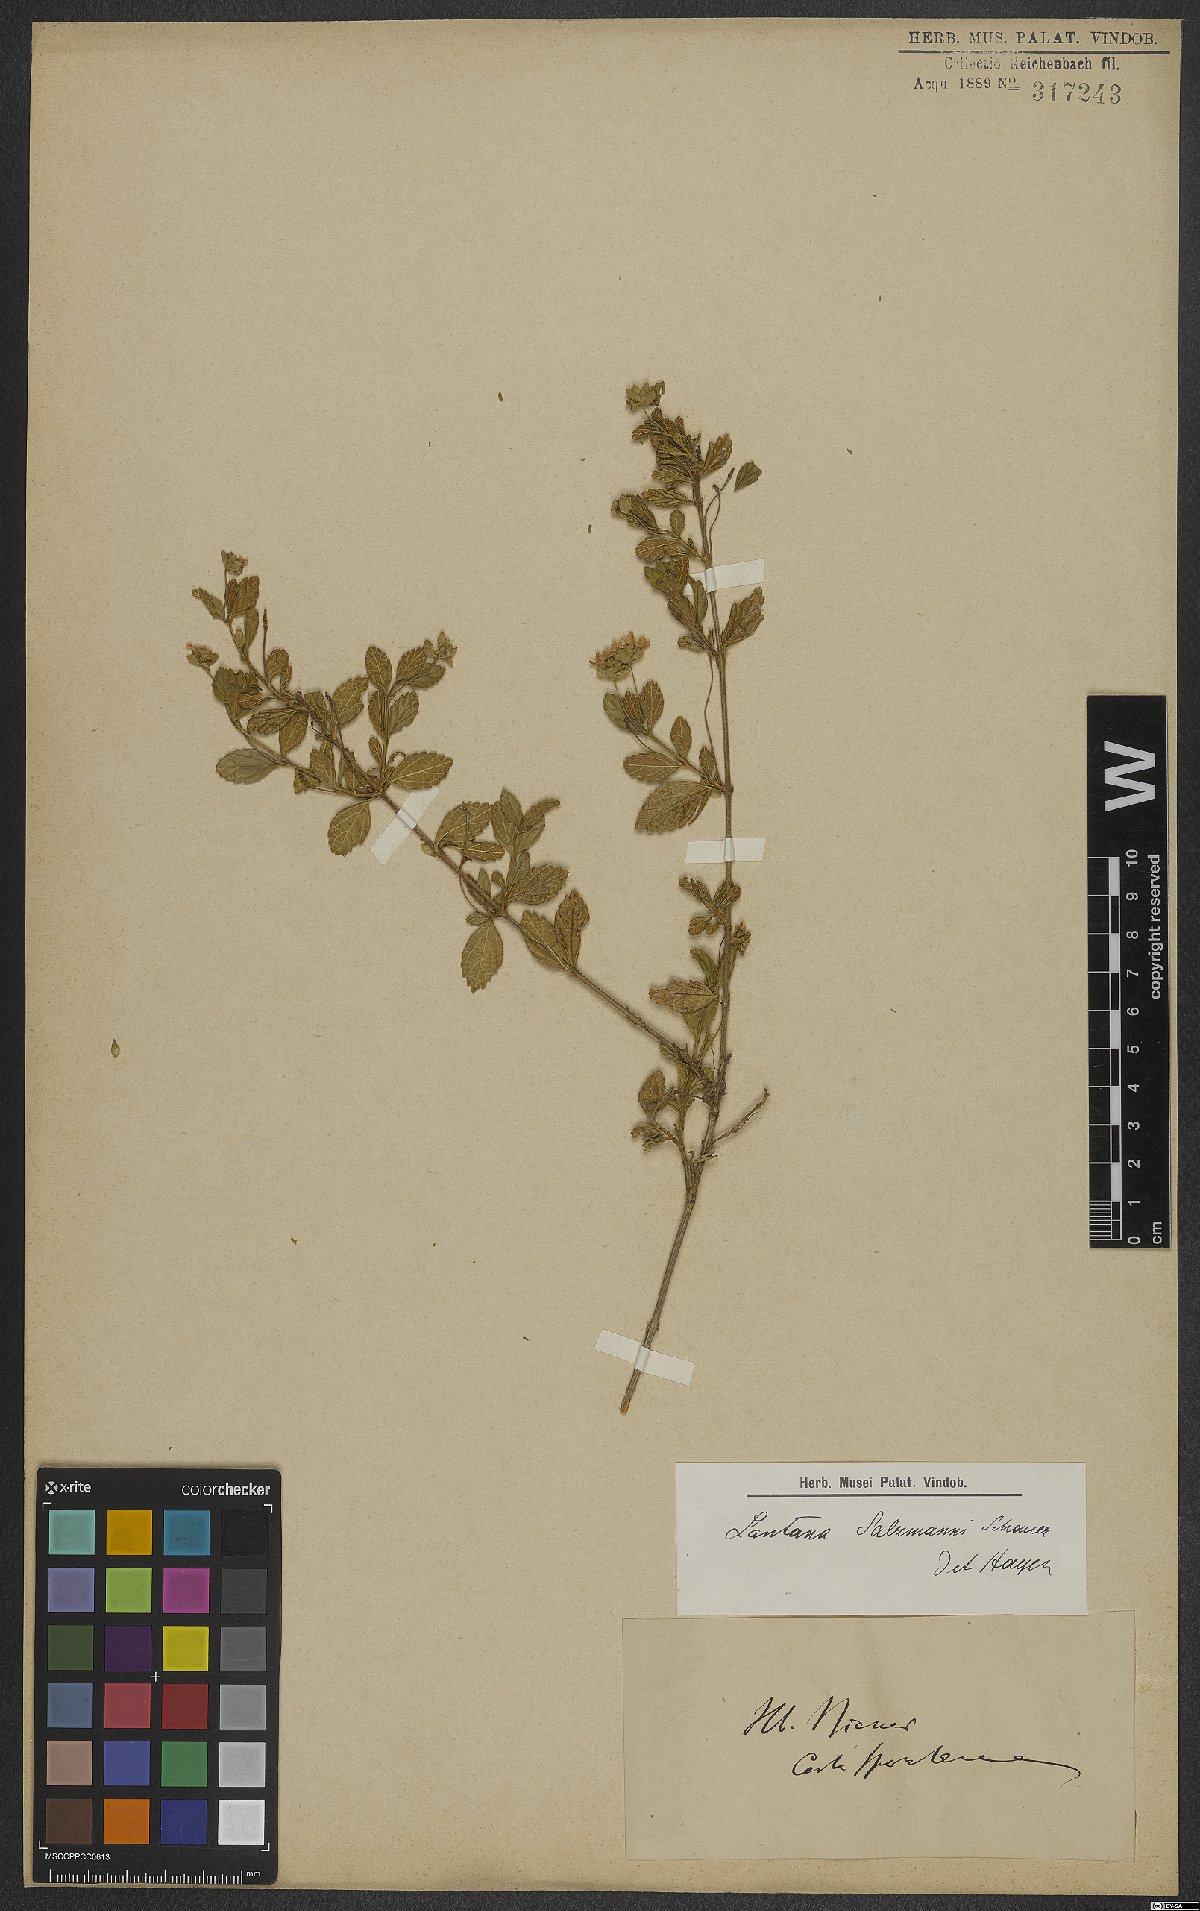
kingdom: Plantae
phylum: Tracheophyta
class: Magnoliopsida
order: Lamiales
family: Verbenaceae
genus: Lantana
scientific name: Lantana salzmannii
